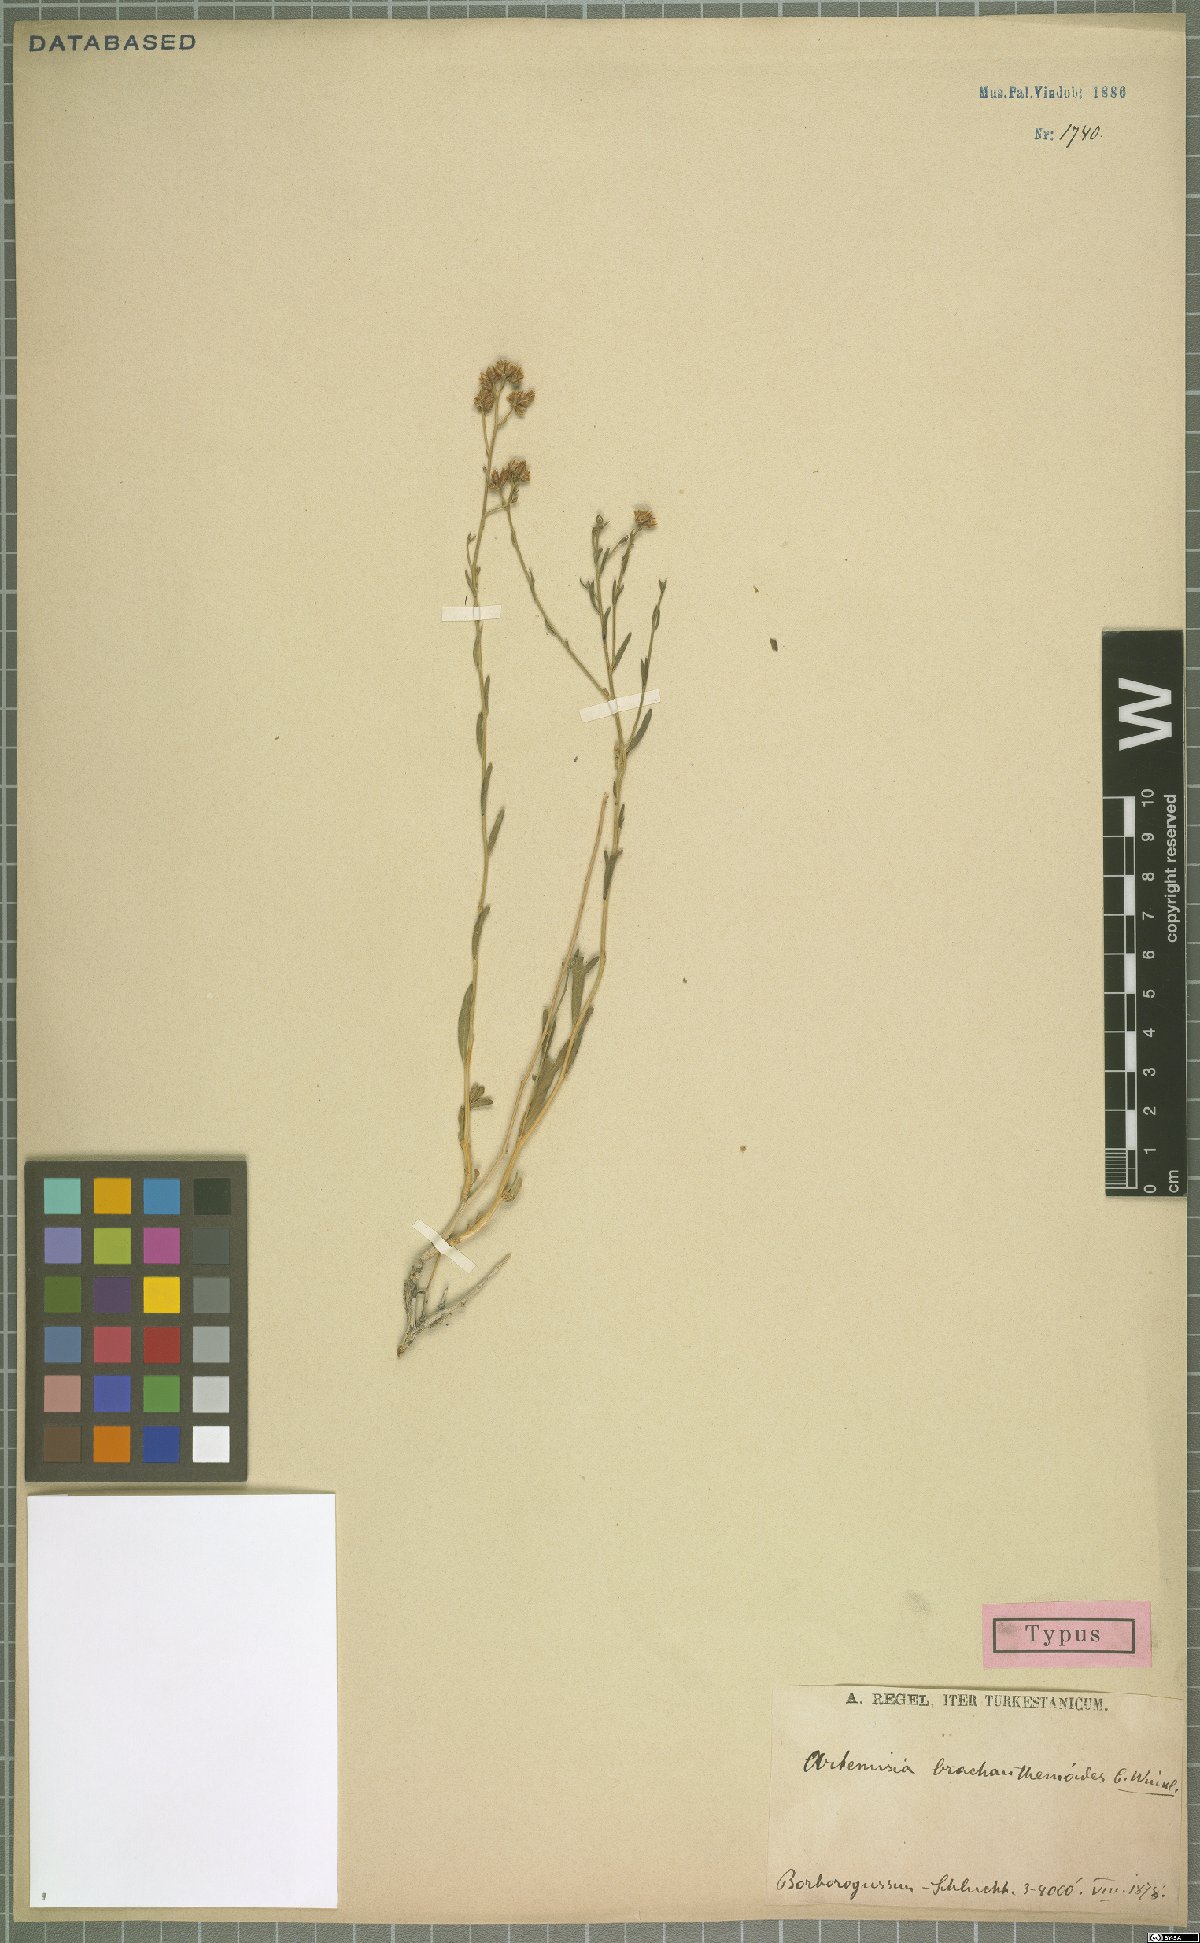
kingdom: Plantae
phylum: Tracheophyta
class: Magnoliopsida
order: Asterales
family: Asteraceae
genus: Kaschgaria
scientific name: Kaschgaria brachanthemoides
